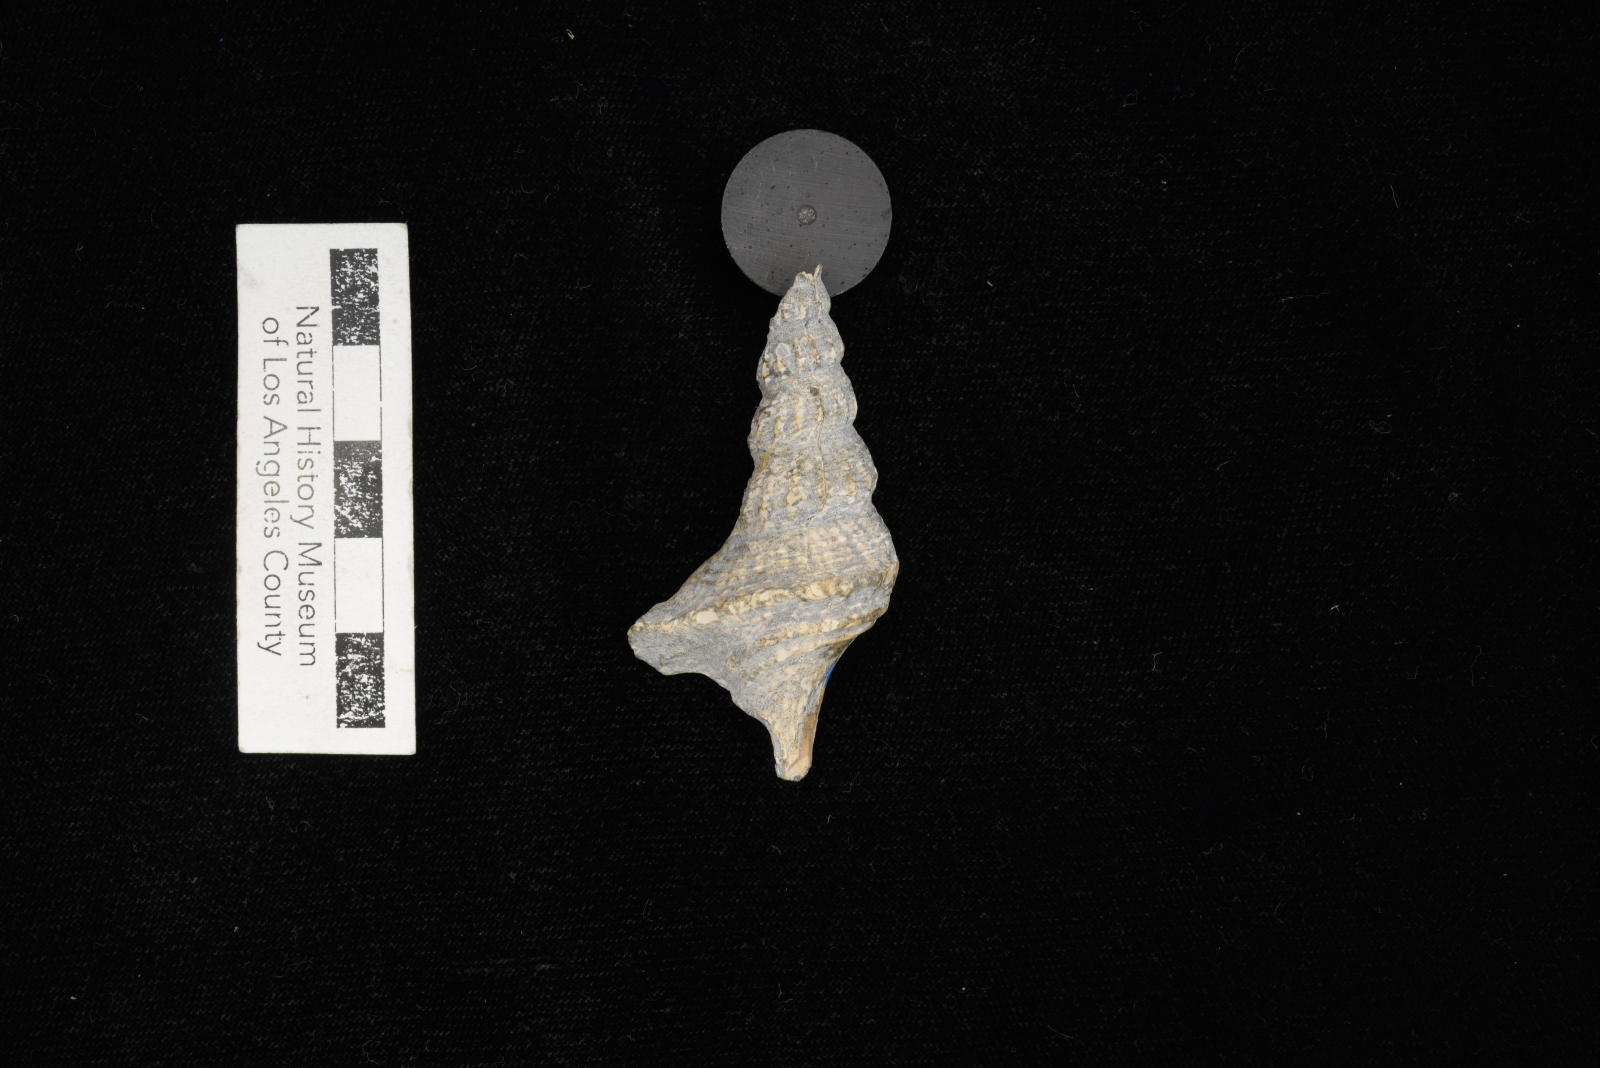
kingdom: Animalia
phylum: Mollusca
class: Gastropoda
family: Metacerithiidae
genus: Cimolithium
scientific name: Cimolithium eleanorae
